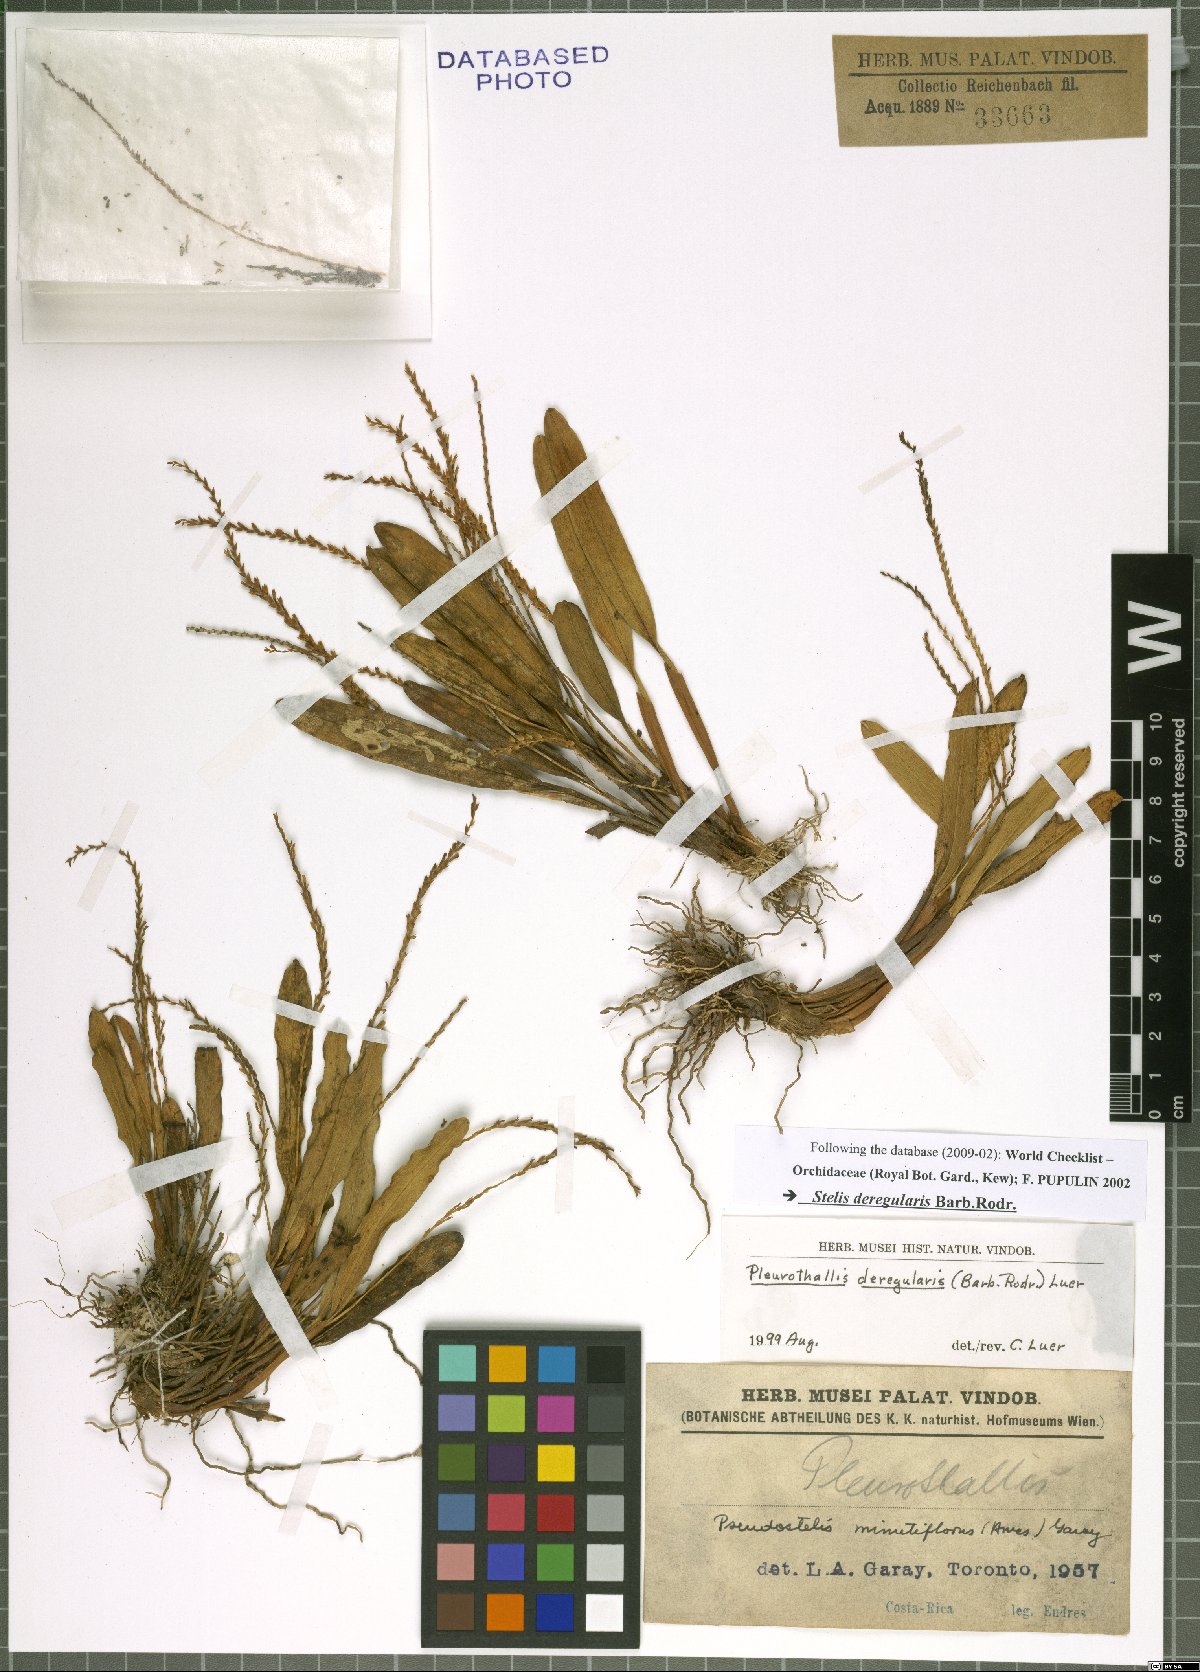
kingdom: Plantae
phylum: Tracheophyta
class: Liliopsida
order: Asparagales
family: Orchidaceae
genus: Stelis
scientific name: Stelis deregularis
